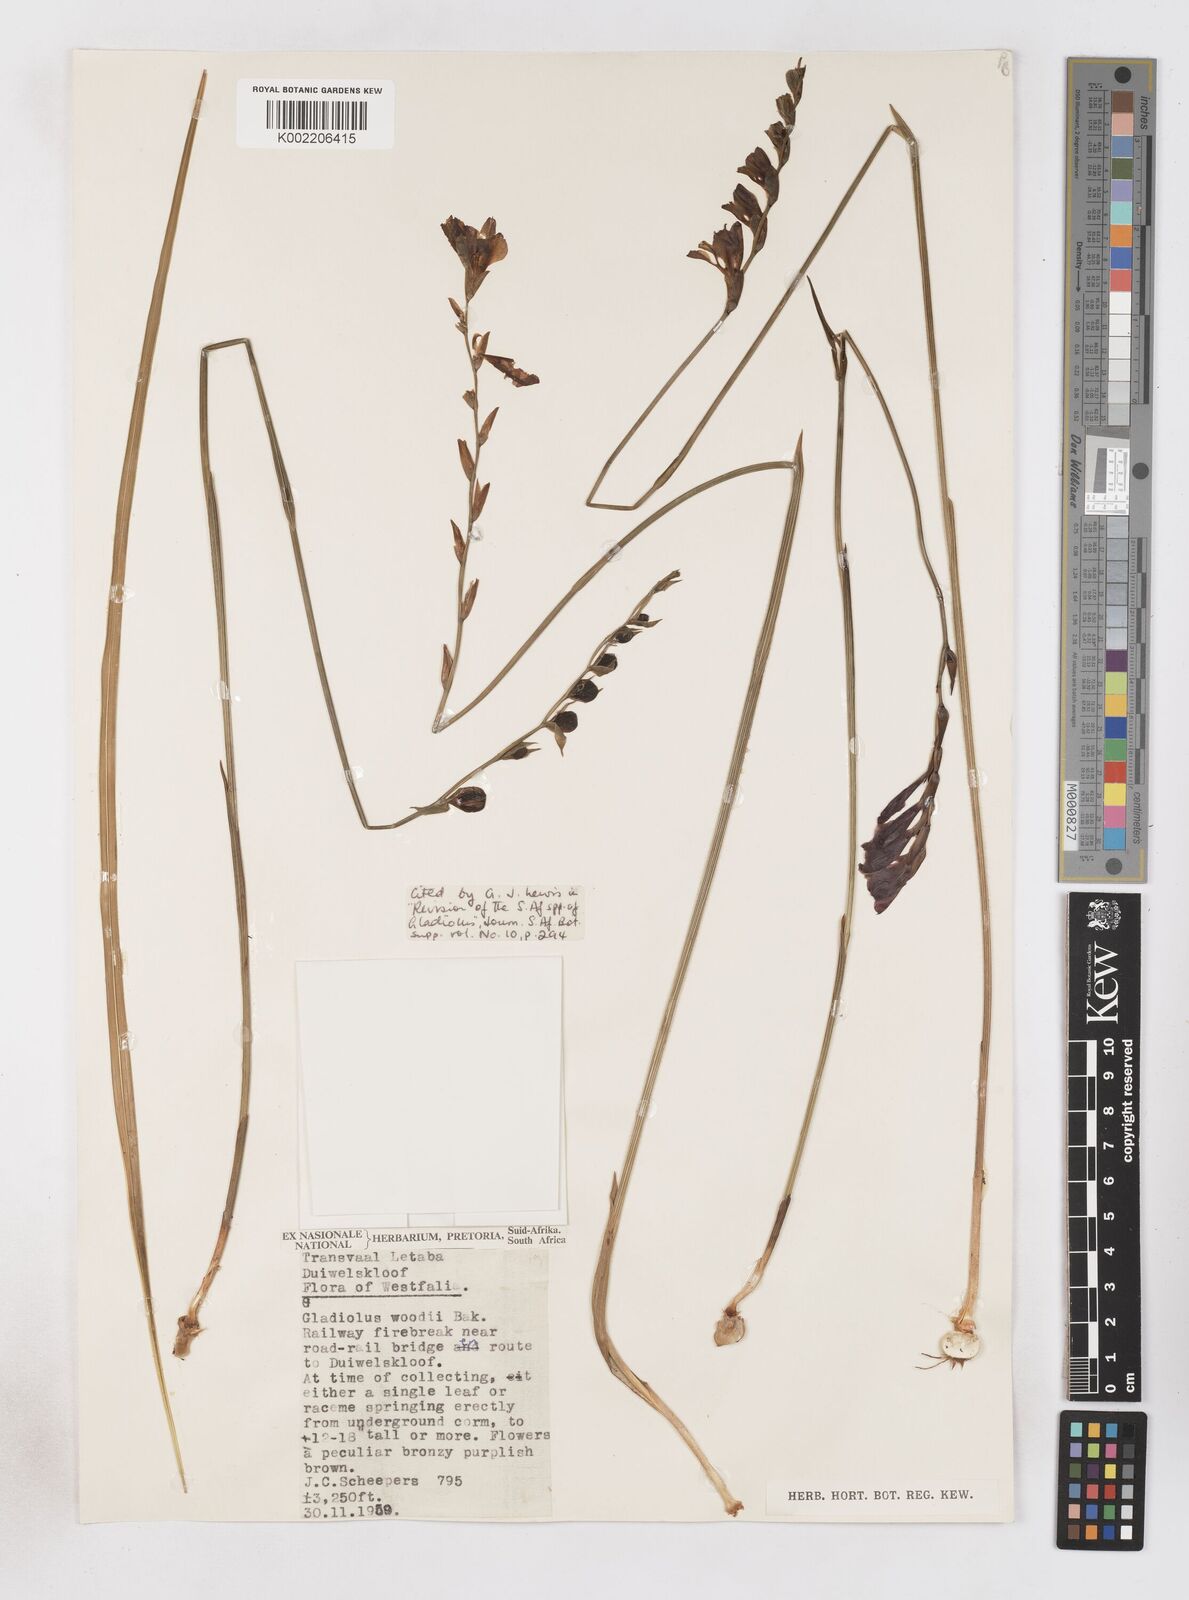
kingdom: Plantae
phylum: Tracheophyta
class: Liliopsida
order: Asparagales
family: Iridaceae
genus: Gladiolus
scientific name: Gladiolus woodii
